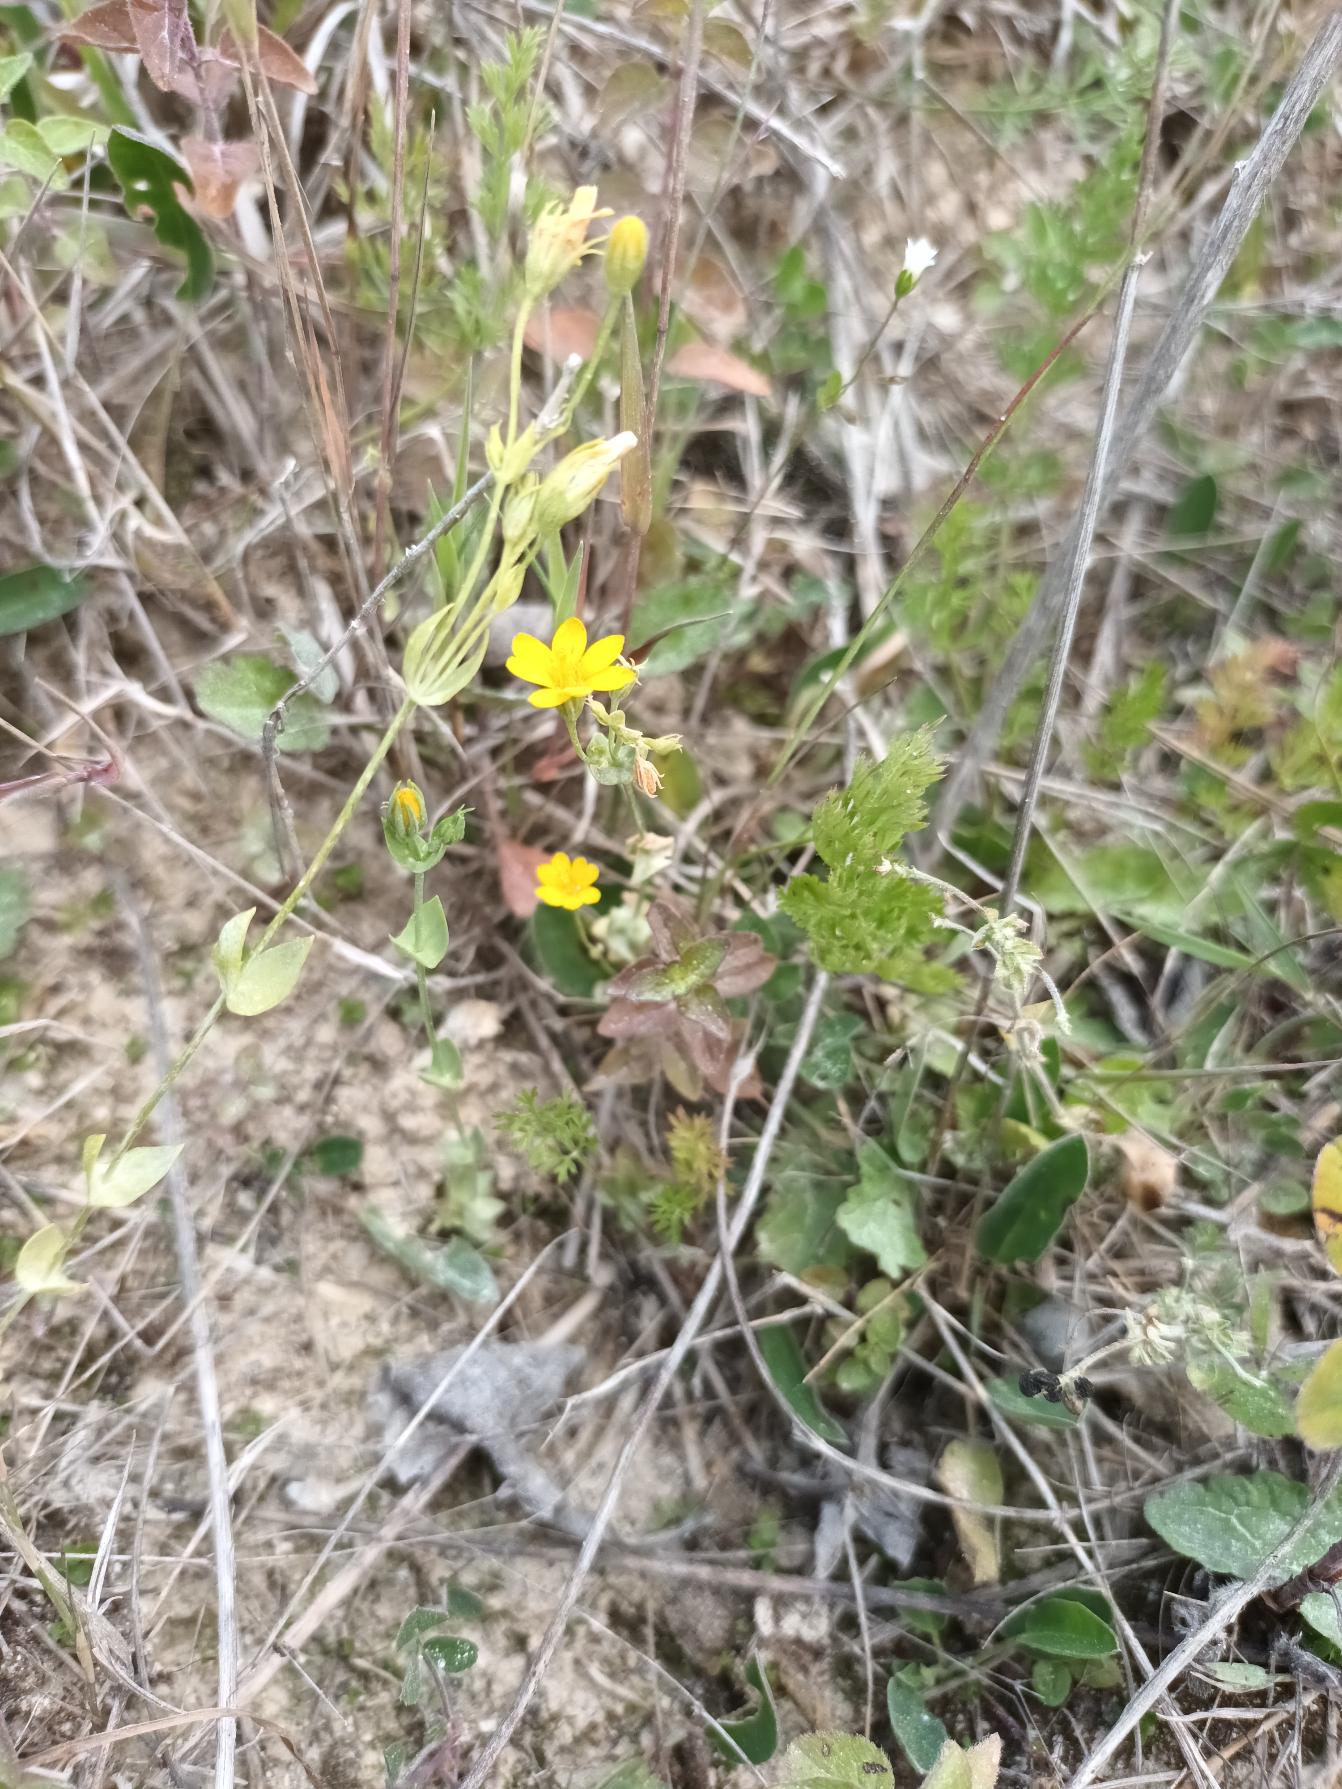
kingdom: Plantae
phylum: Tracheophyta
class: Magnoliopsida
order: Gentianales
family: Gentianaceae
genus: Blackstonia
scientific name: Blackstonia perfoliata
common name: Almindelig gyldenurt
